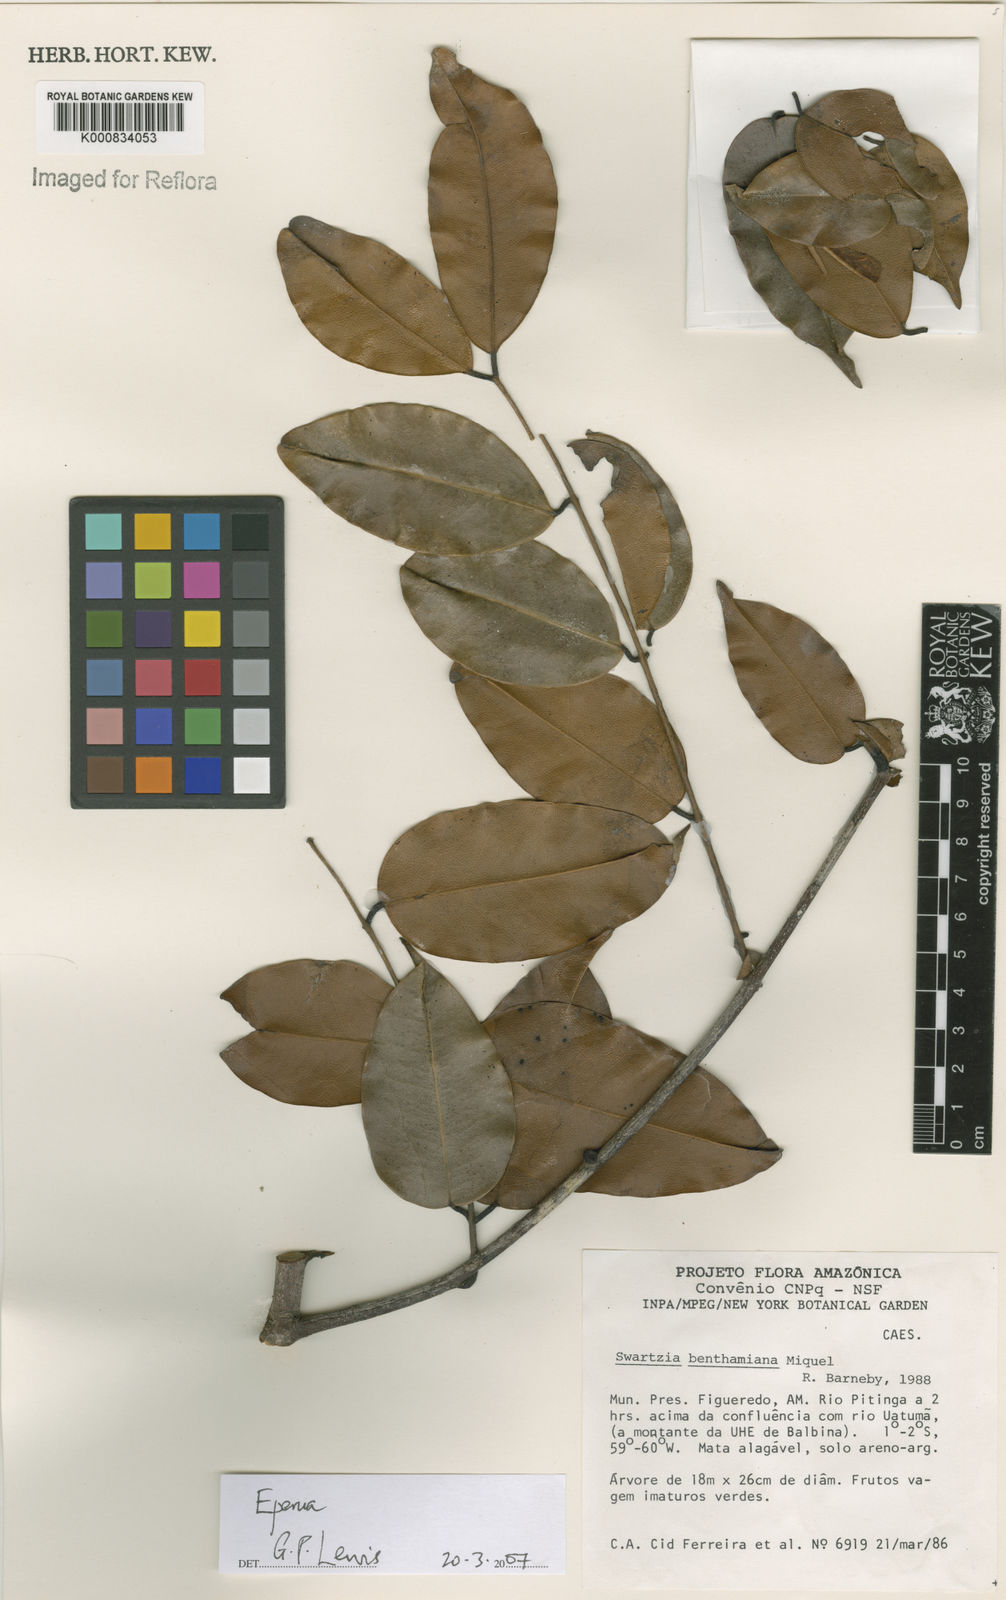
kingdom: Plantae
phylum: Tracheophyta
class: Magnoliopsida
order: Fabales
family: Fabaceae
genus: Eperua
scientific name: Eperua
